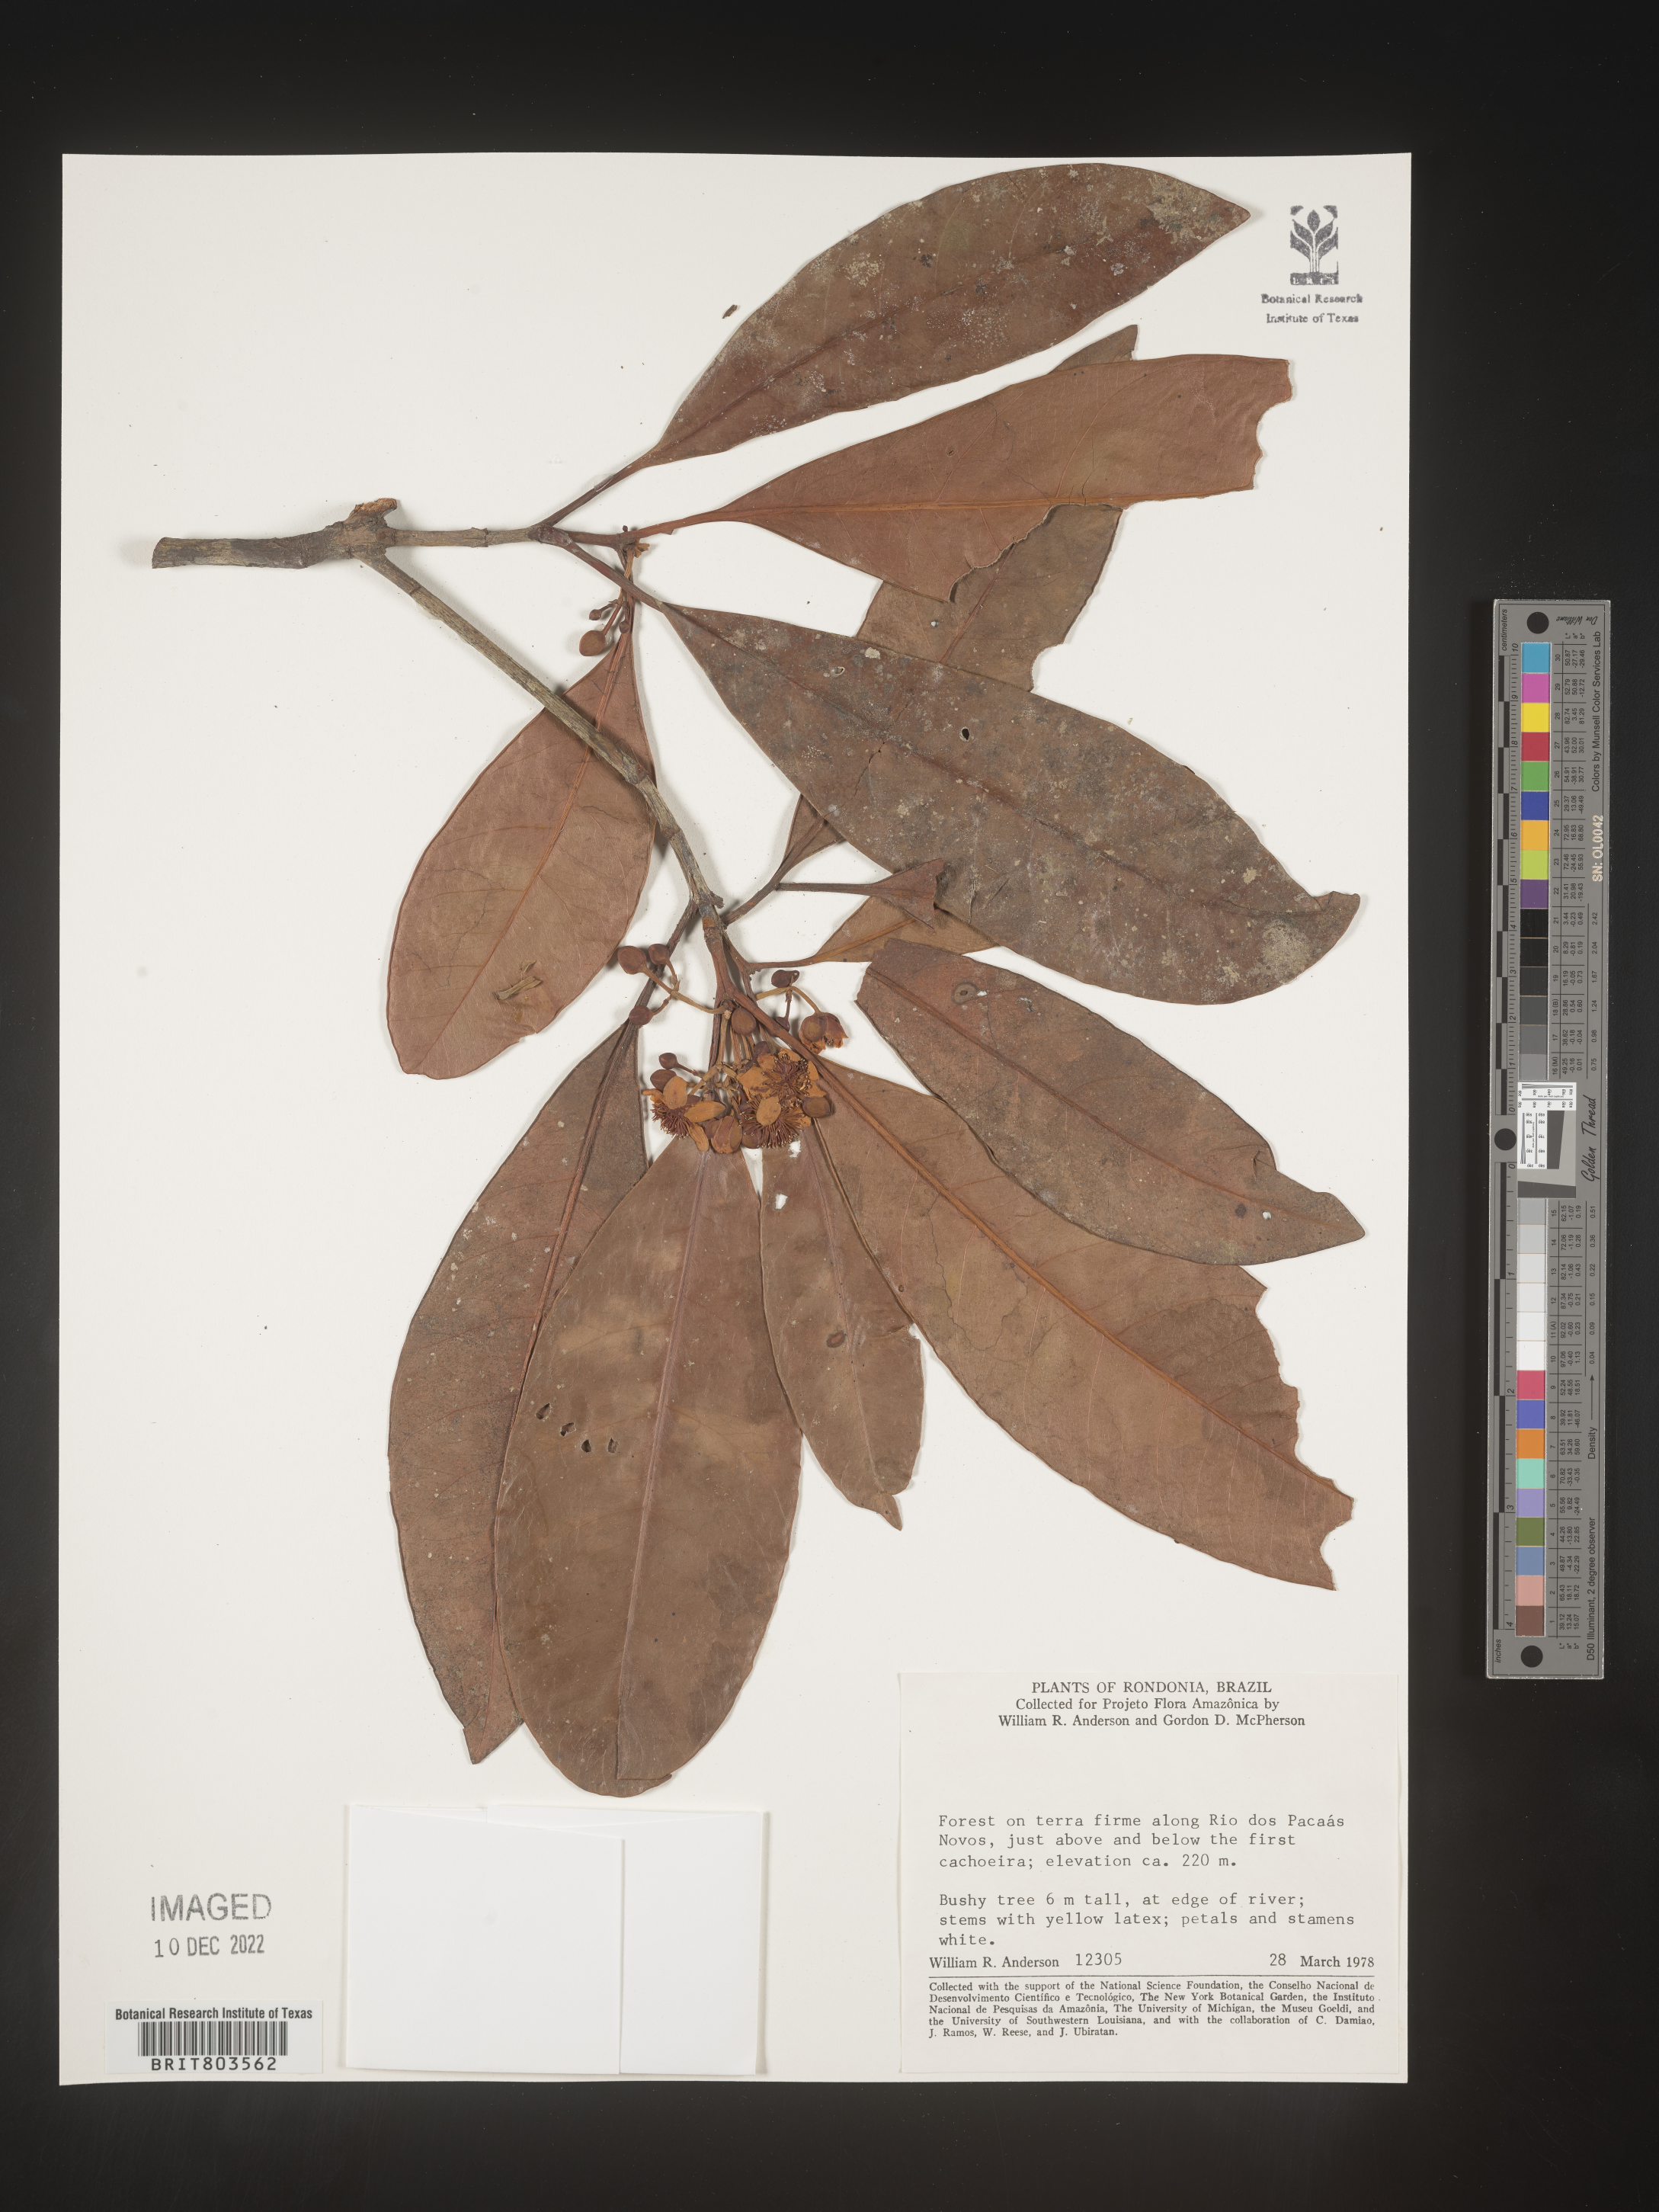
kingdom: Plantae
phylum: Tracheophyta
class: Magnoliopsida
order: Malpighiales
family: Clusiaceae
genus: Tovomita
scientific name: Tovomita
